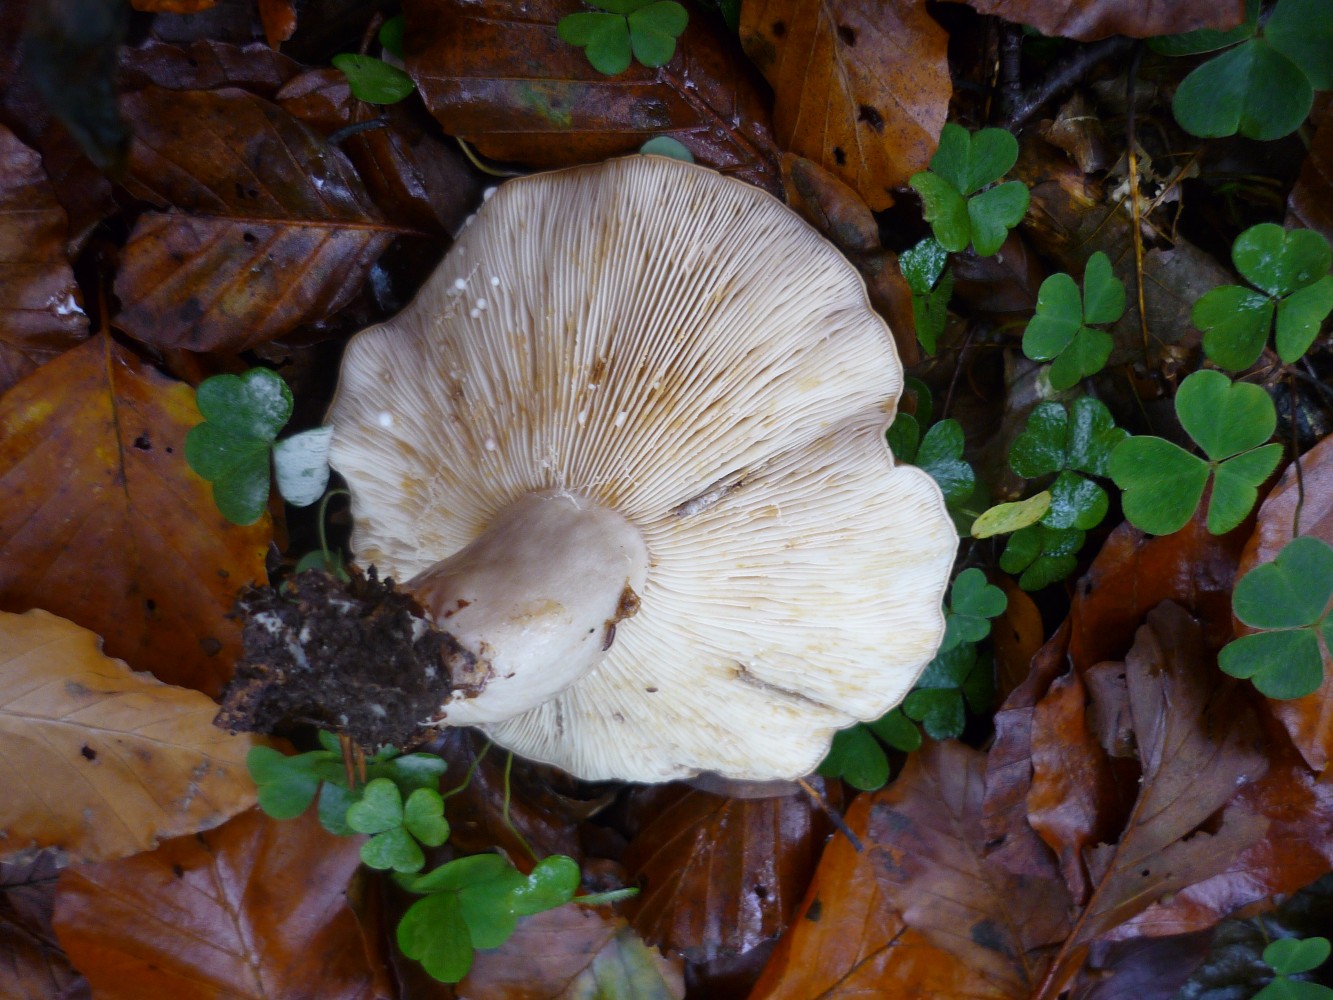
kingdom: Fungi
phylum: Basidiomycota
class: Agaricomycetes
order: Russulales
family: Russulaceae
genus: Lactarius
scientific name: Lactarius fluens
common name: lysrandet mælkehat
